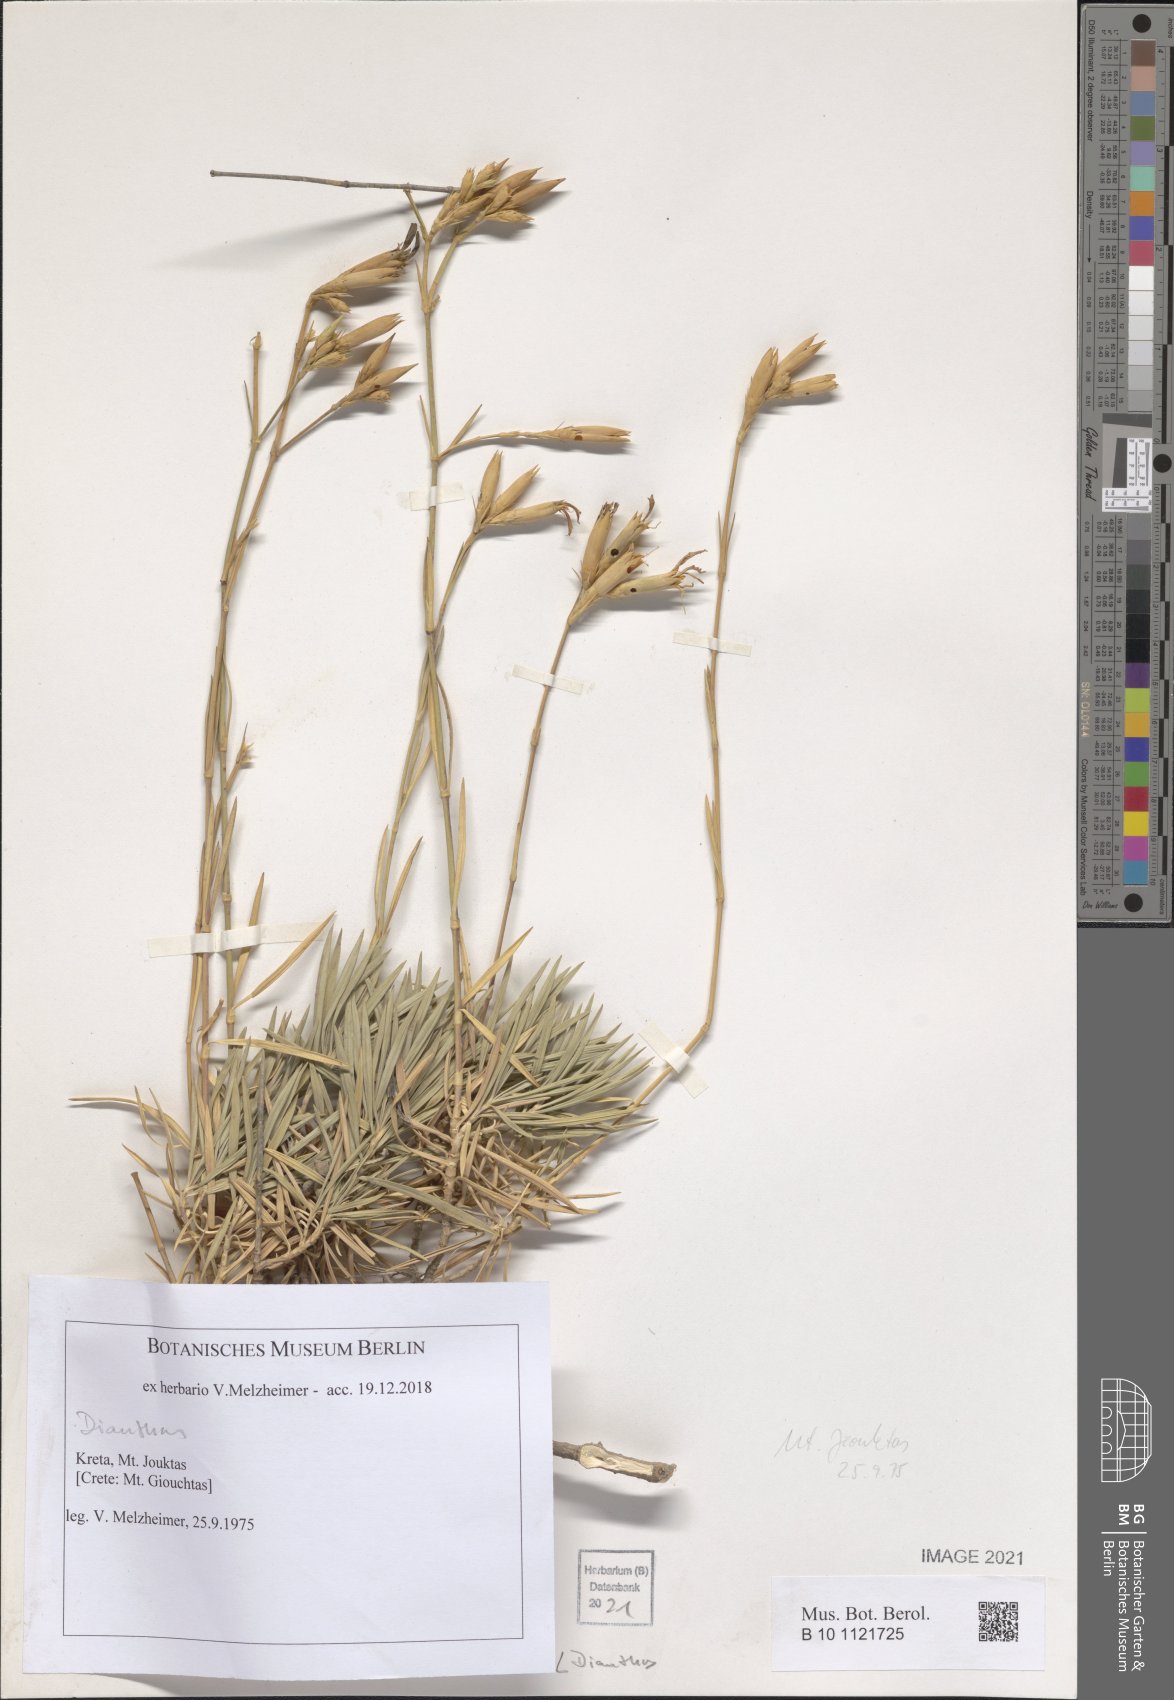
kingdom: Plantae
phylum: Tracheophyta
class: Magnoliopsida
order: Caryophyllales
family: Caryophyllaceae
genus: Dianthus
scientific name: Dianthus
